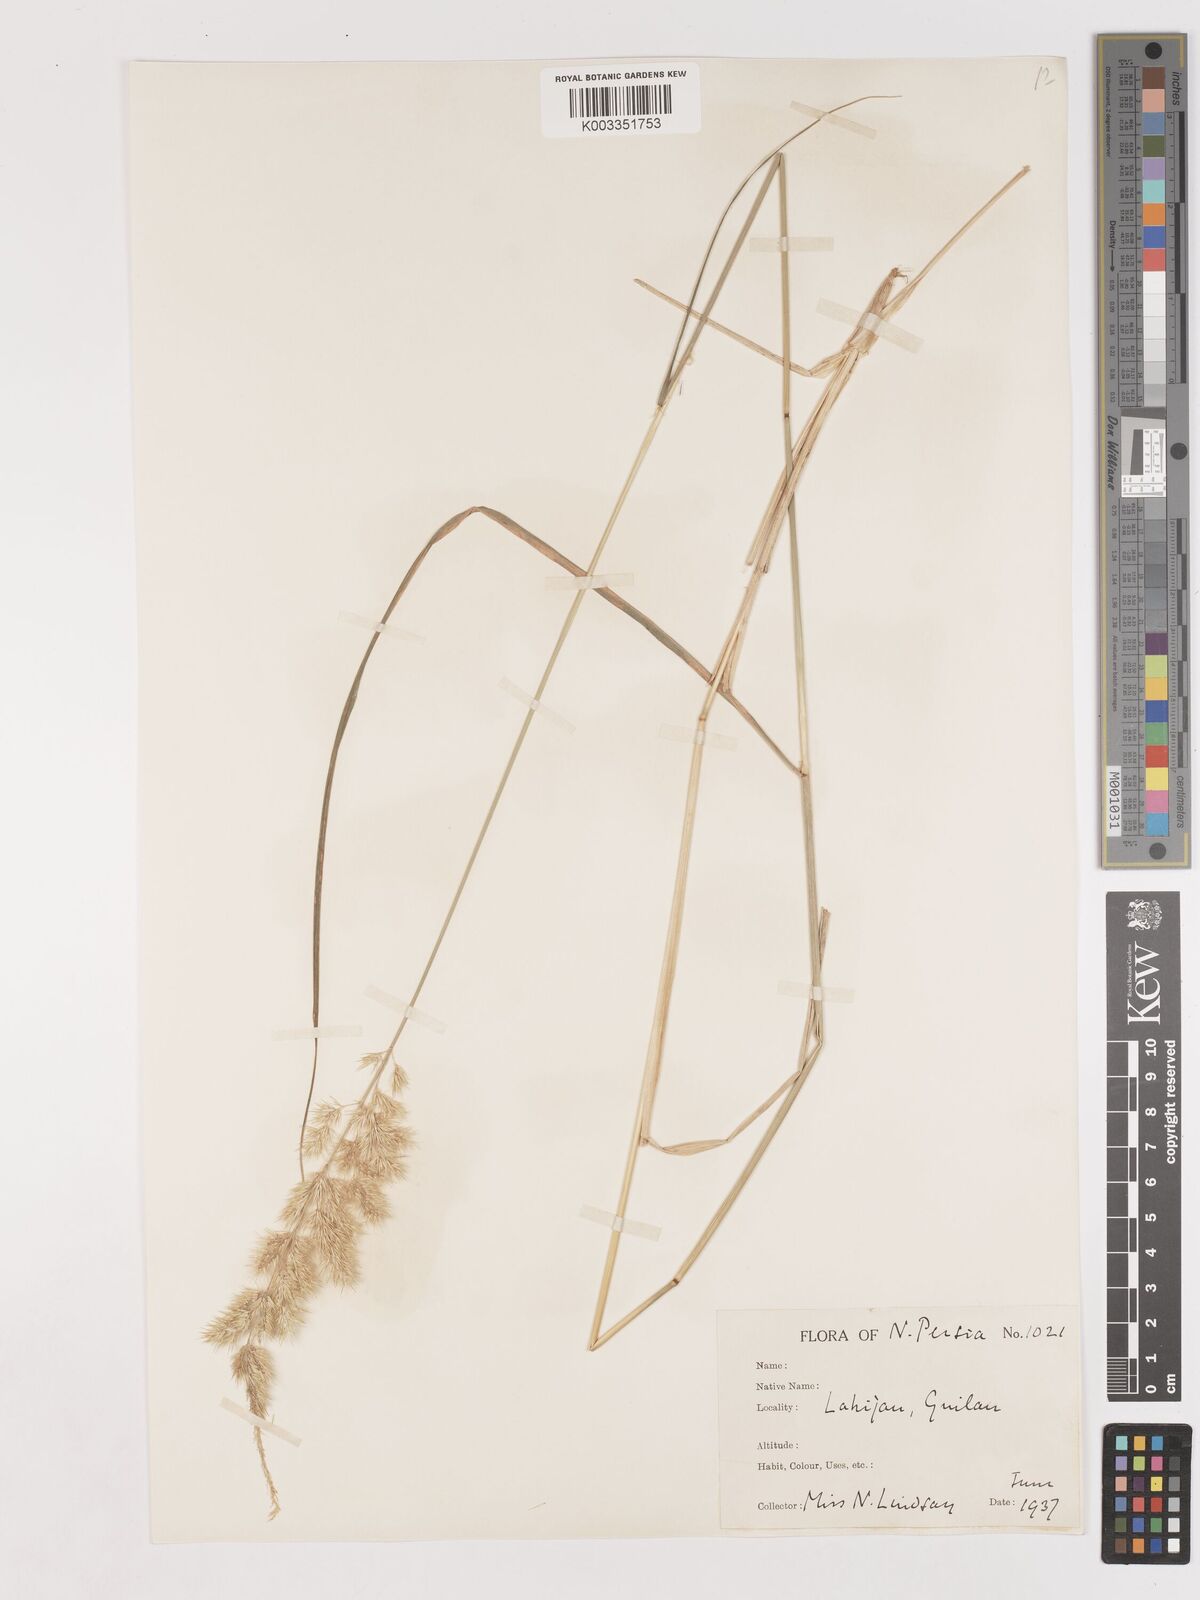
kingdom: Plantae
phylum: Tracheophyta
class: Liliopsida
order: Poales
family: Poaceae
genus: Calamagrostis
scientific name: Calamagrostis
